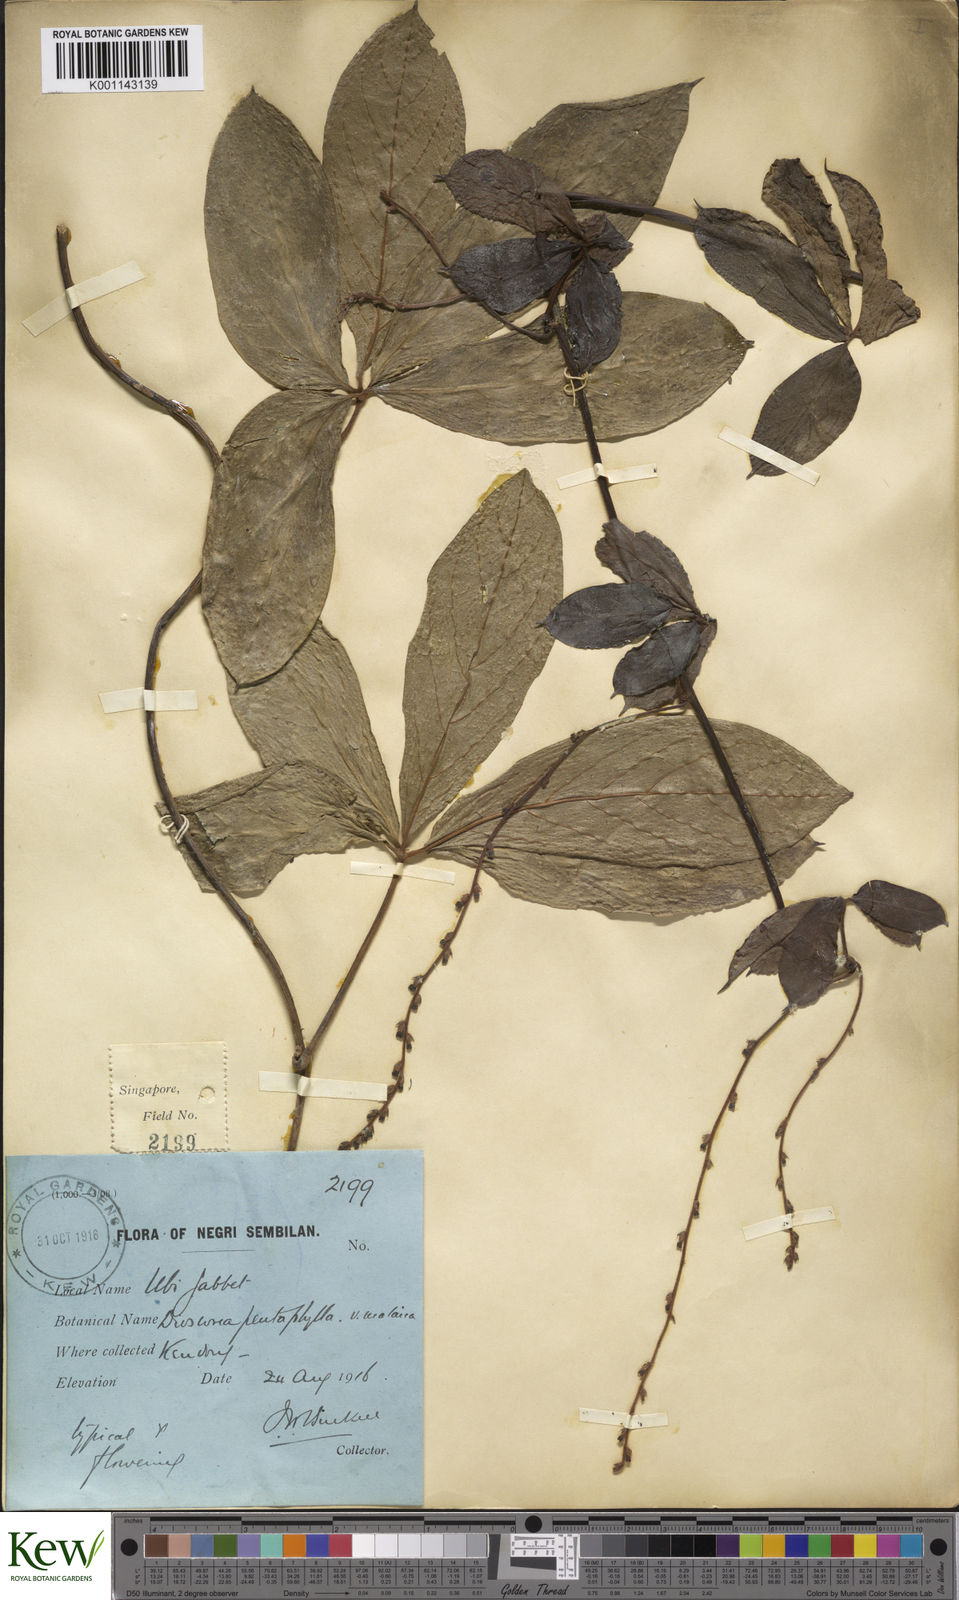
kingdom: Plantae
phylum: Tracheophyta
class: Liliopsida
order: Dioscoreales
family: Dioscoreaceae
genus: Dioscorea
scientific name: Dioscorea pentaphylla
